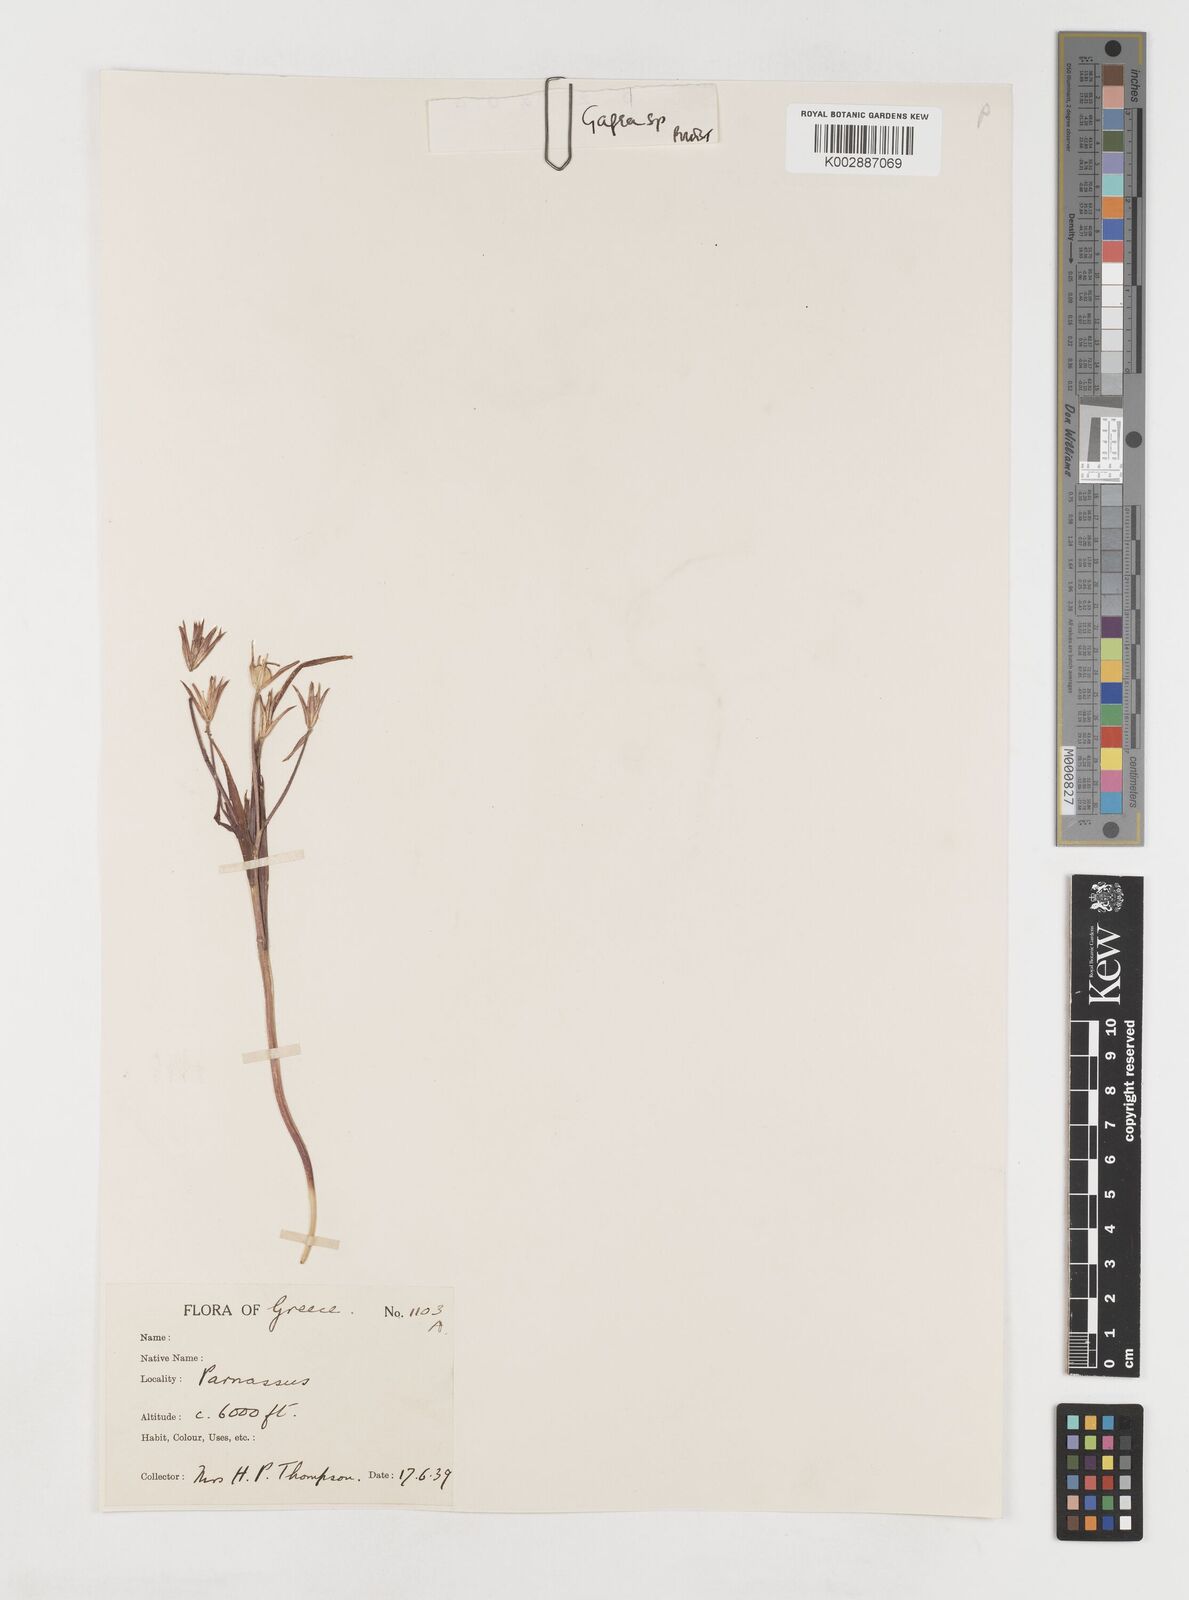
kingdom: Plantae
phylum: Tracheophyta
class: Liliopsida
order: Liliales
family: Liliaceae
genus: Gagea
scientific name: Gagea minima
